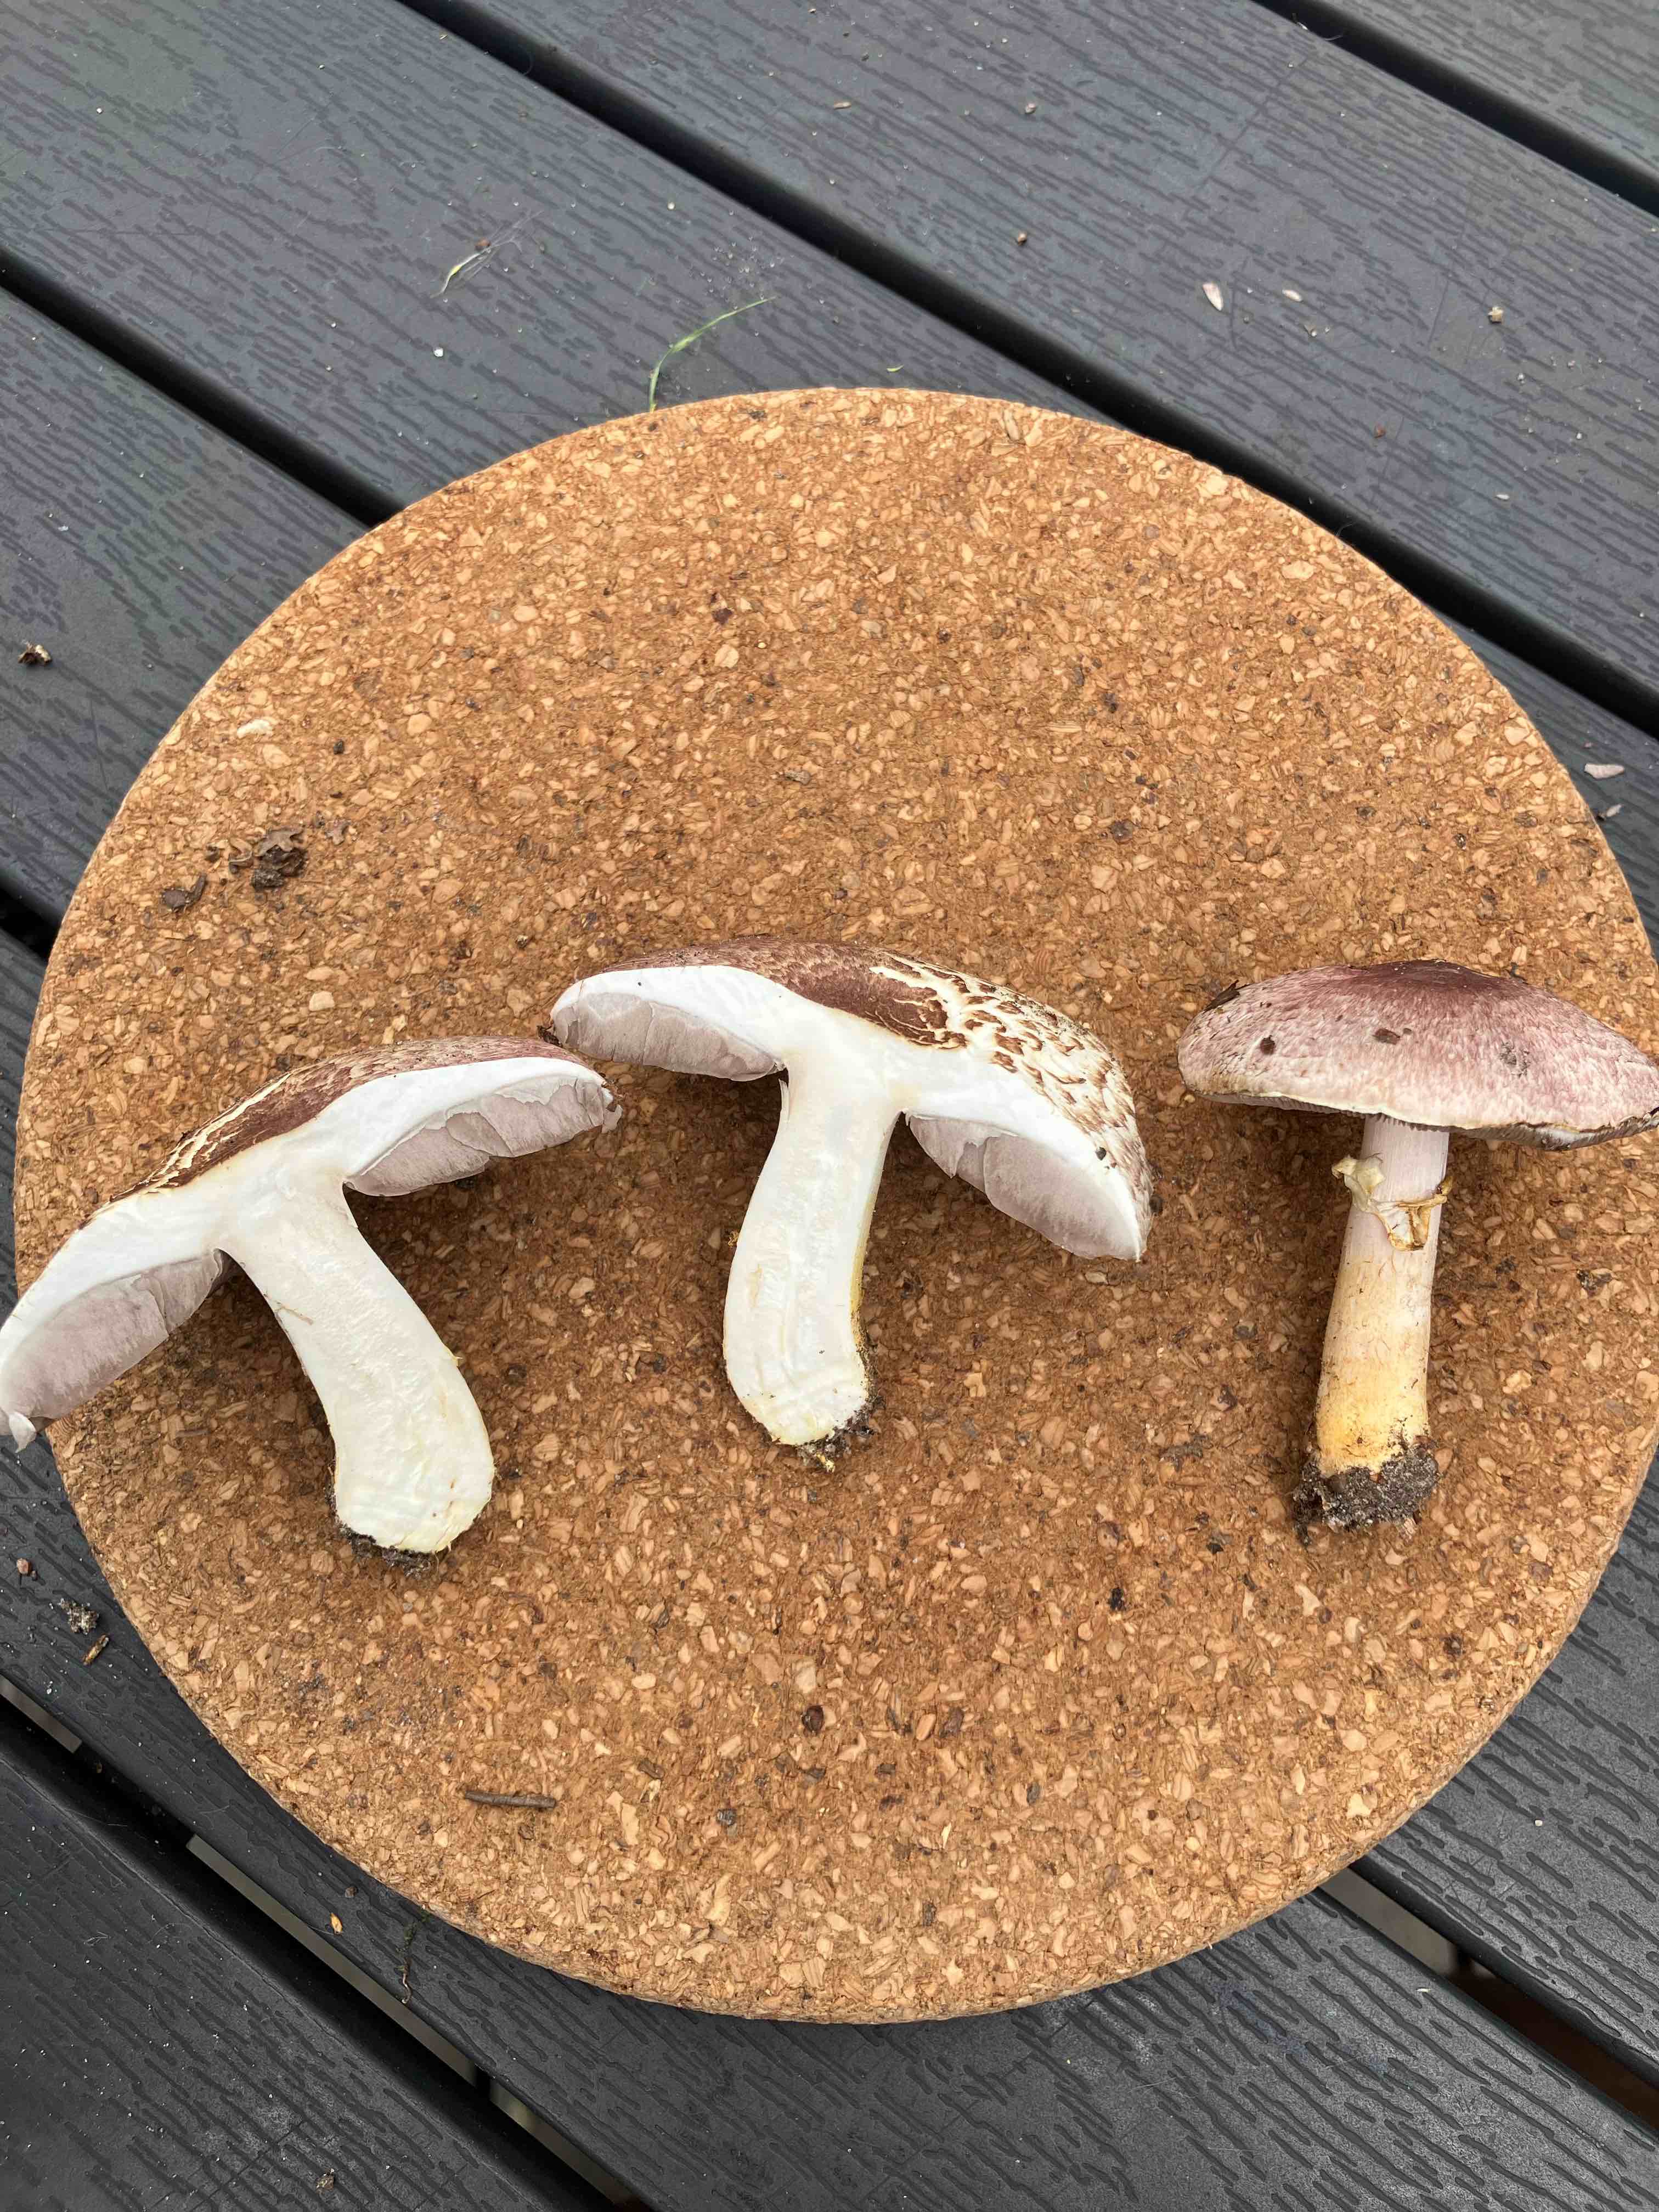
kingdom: Fungi
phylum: Basidiomycota
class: Agaricomycetes
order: Agaricales
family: Agaricaceae
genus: Agaricus
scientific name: Agaricus brunneolus
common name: purpur-champignon
